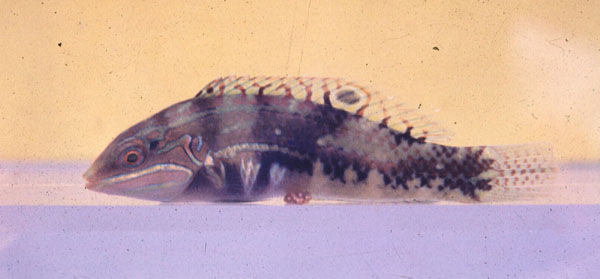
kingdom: Animalia
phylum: Chordata
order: Perciformes
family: Labridae
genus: Halichoeres
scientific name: Halichoeres nebulosus
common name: Clouded wrasse
